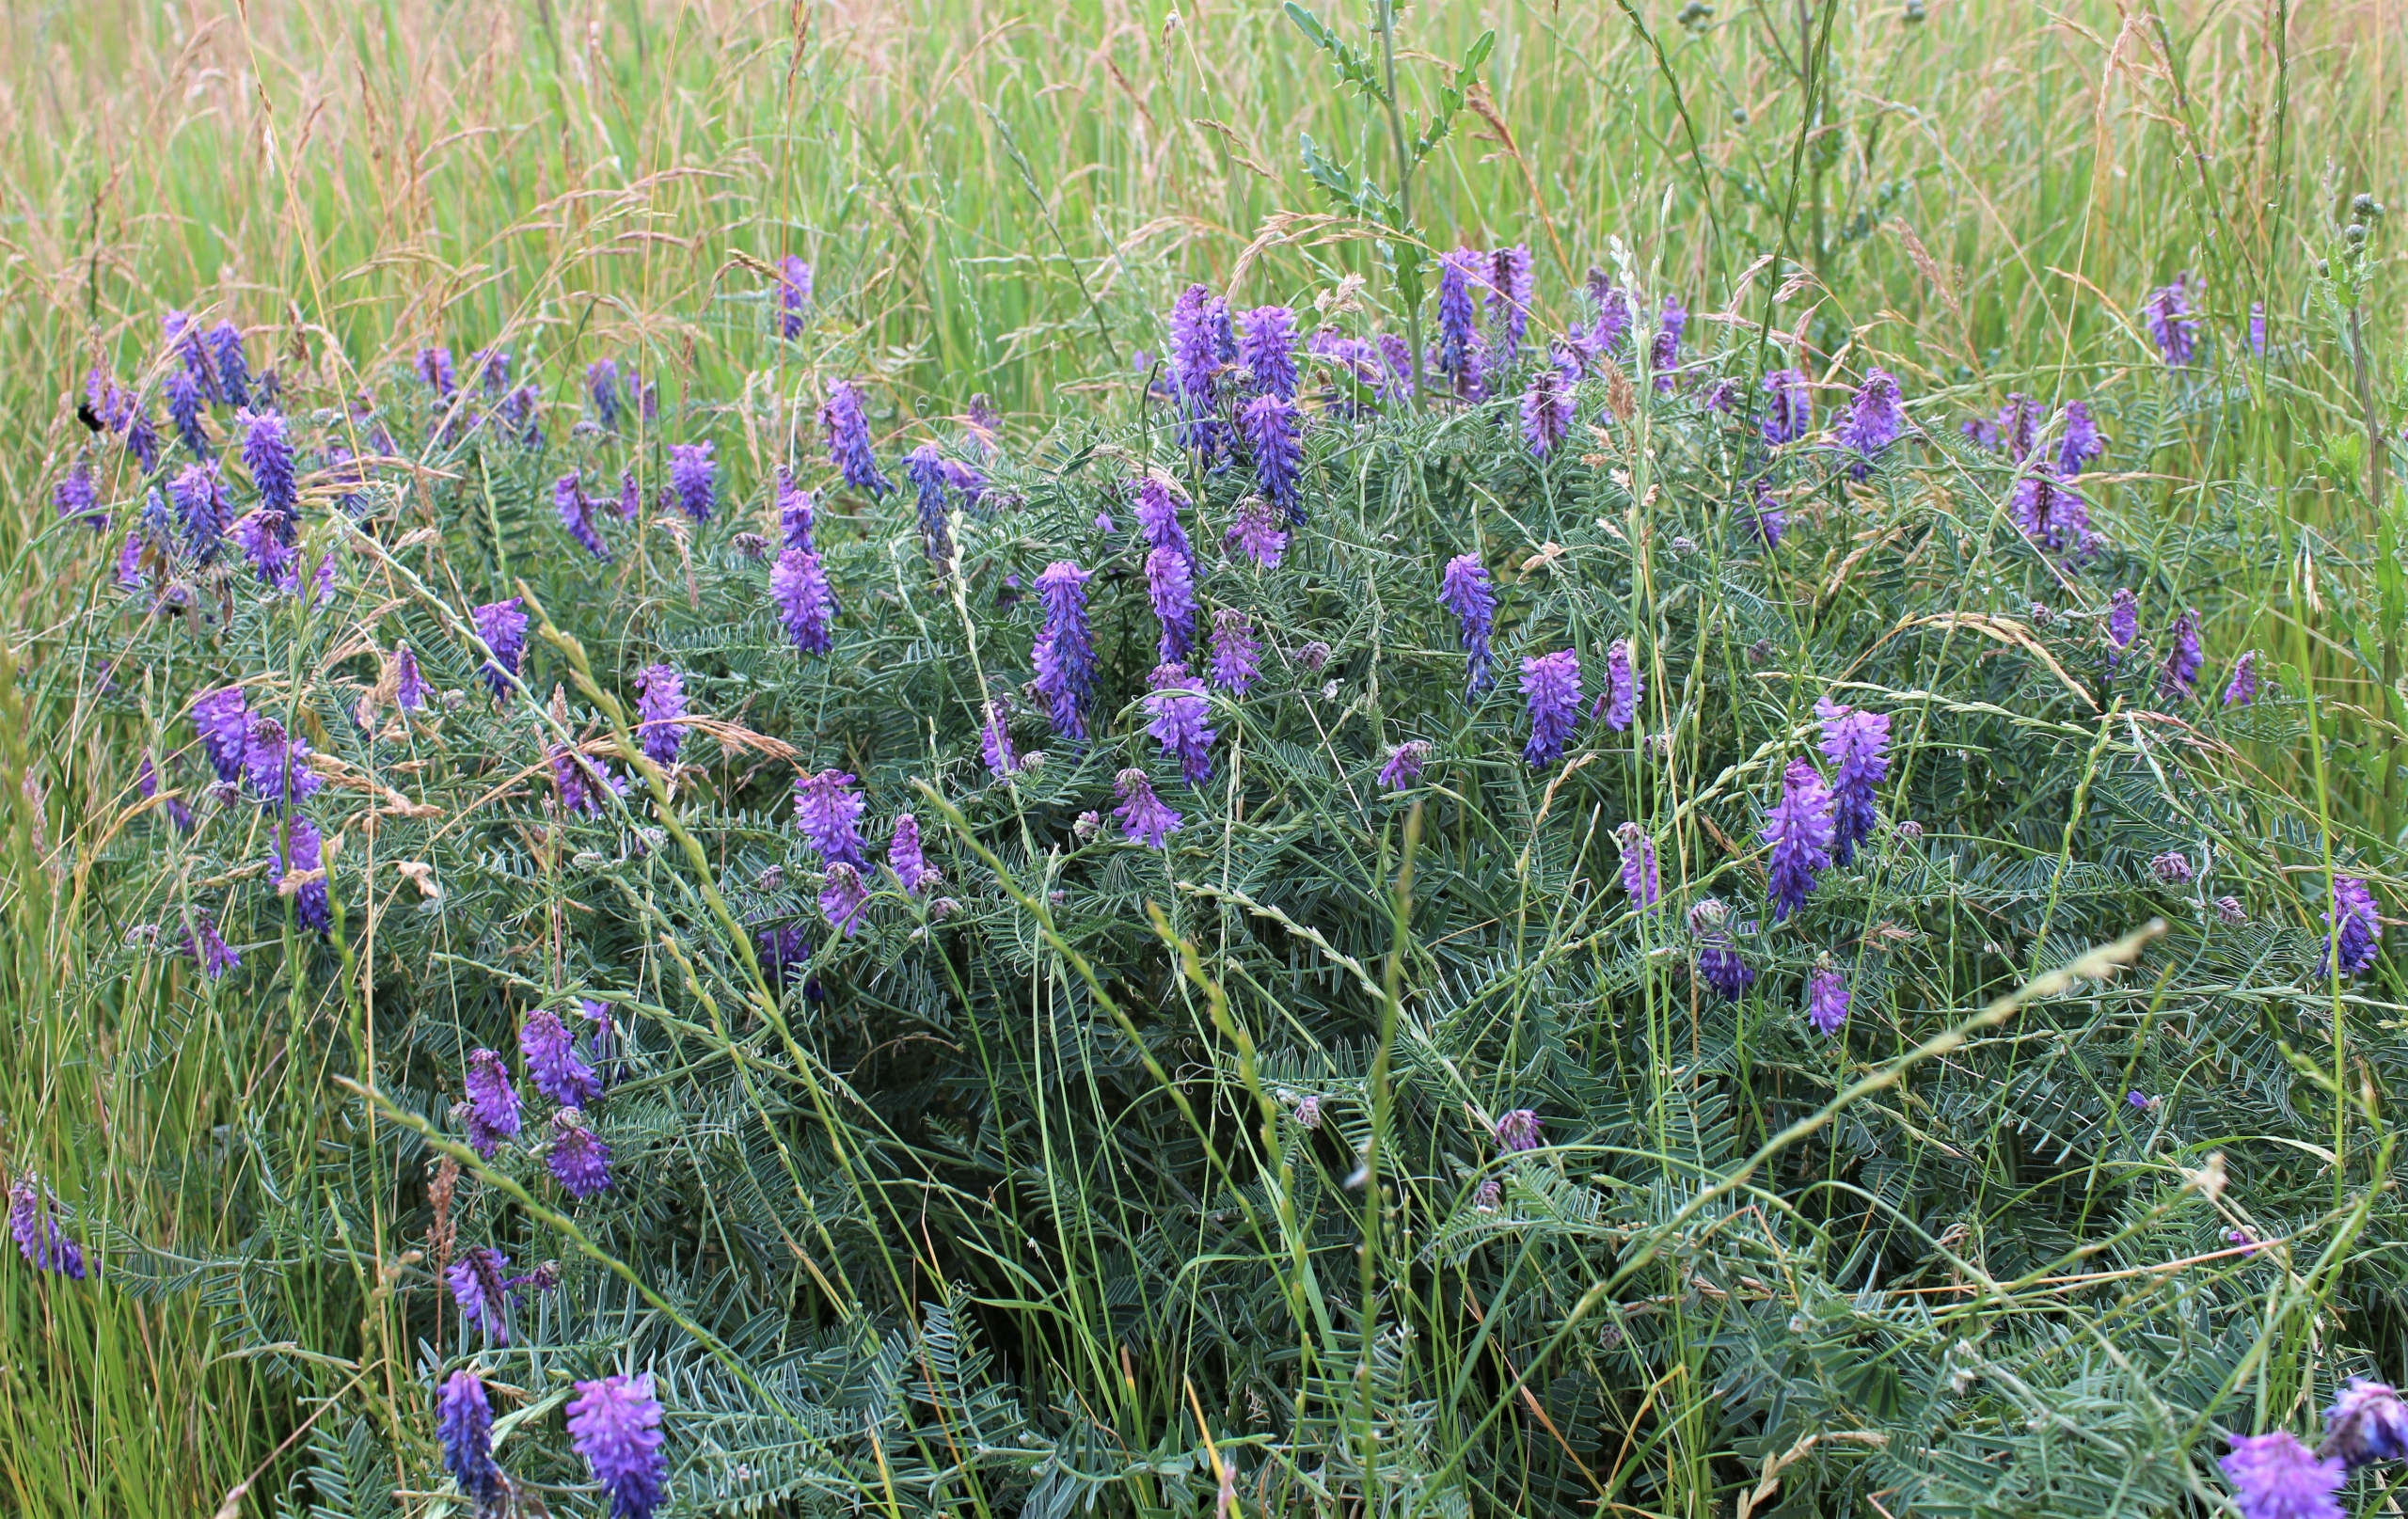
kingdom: Plantae
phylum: Tracheophyta
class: Magnoliopsida
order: Fabales
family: Fabaceae
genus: Vicia
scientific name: Vicia cracca
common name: Muse-vikke
